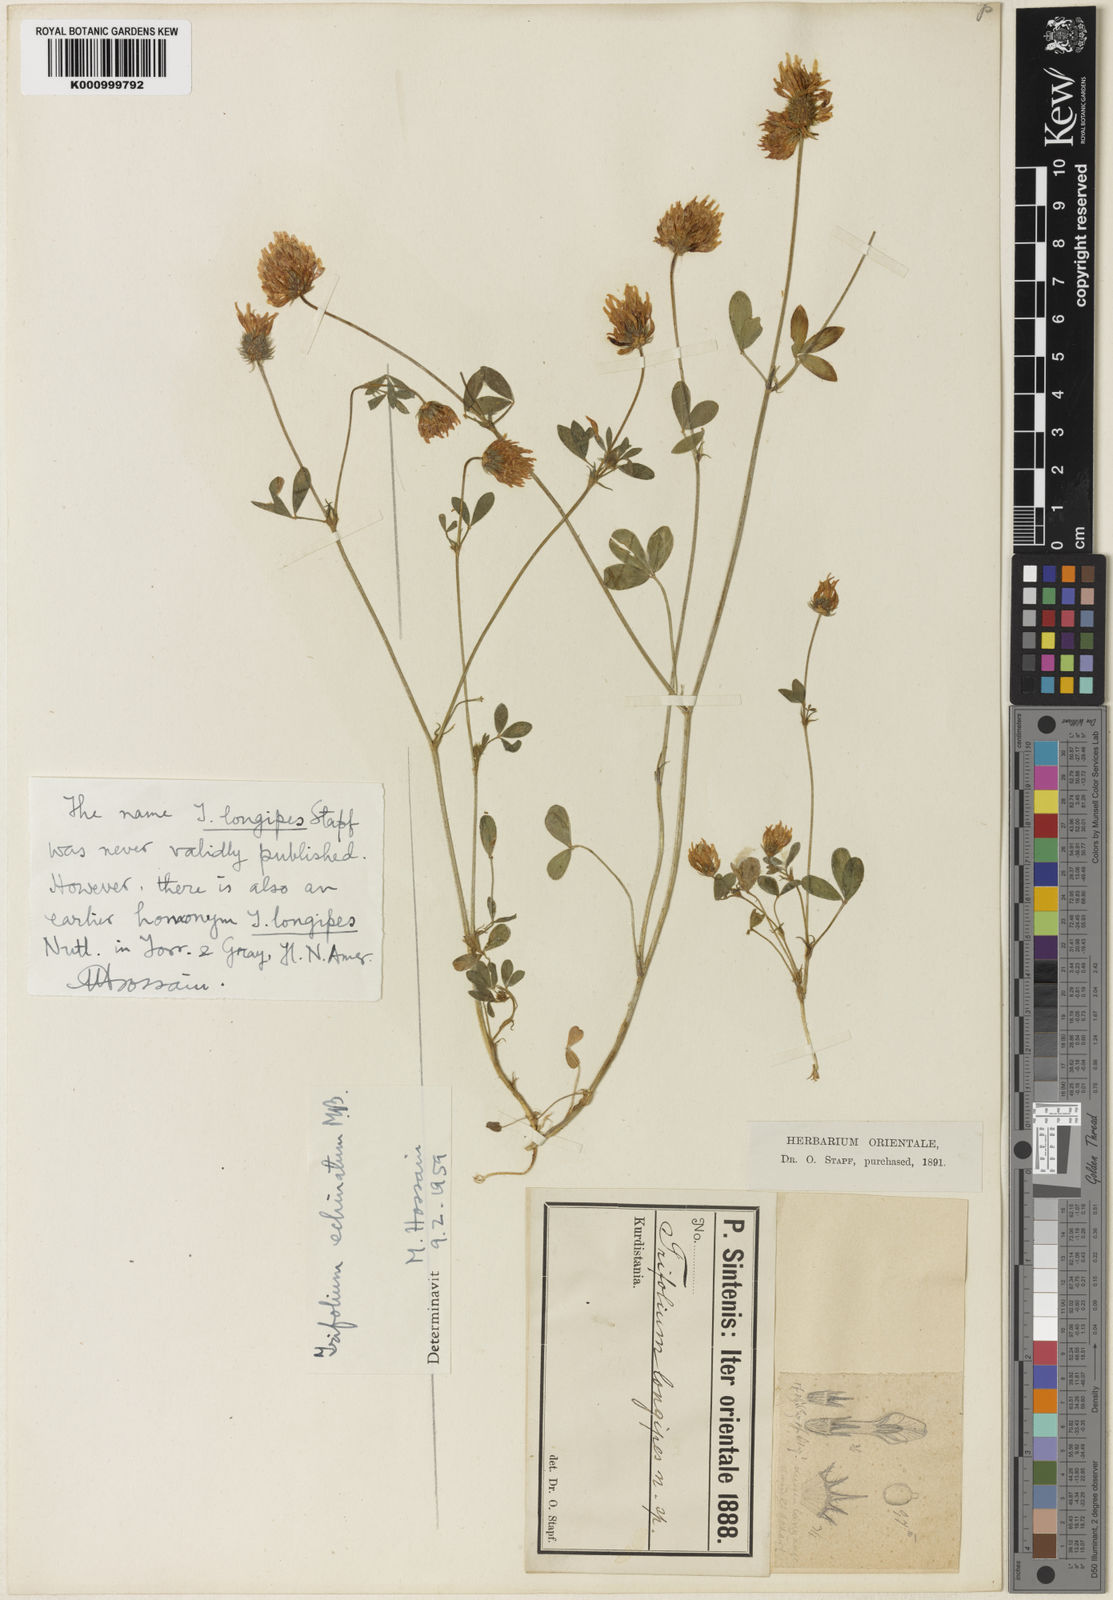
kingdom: Plantae
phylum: Tracheophyta
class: Magnoliopsida
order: Fabales
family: Fabaceae
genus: Trifolium
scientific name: Trifolium echinatum
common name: Hedgehog clover
